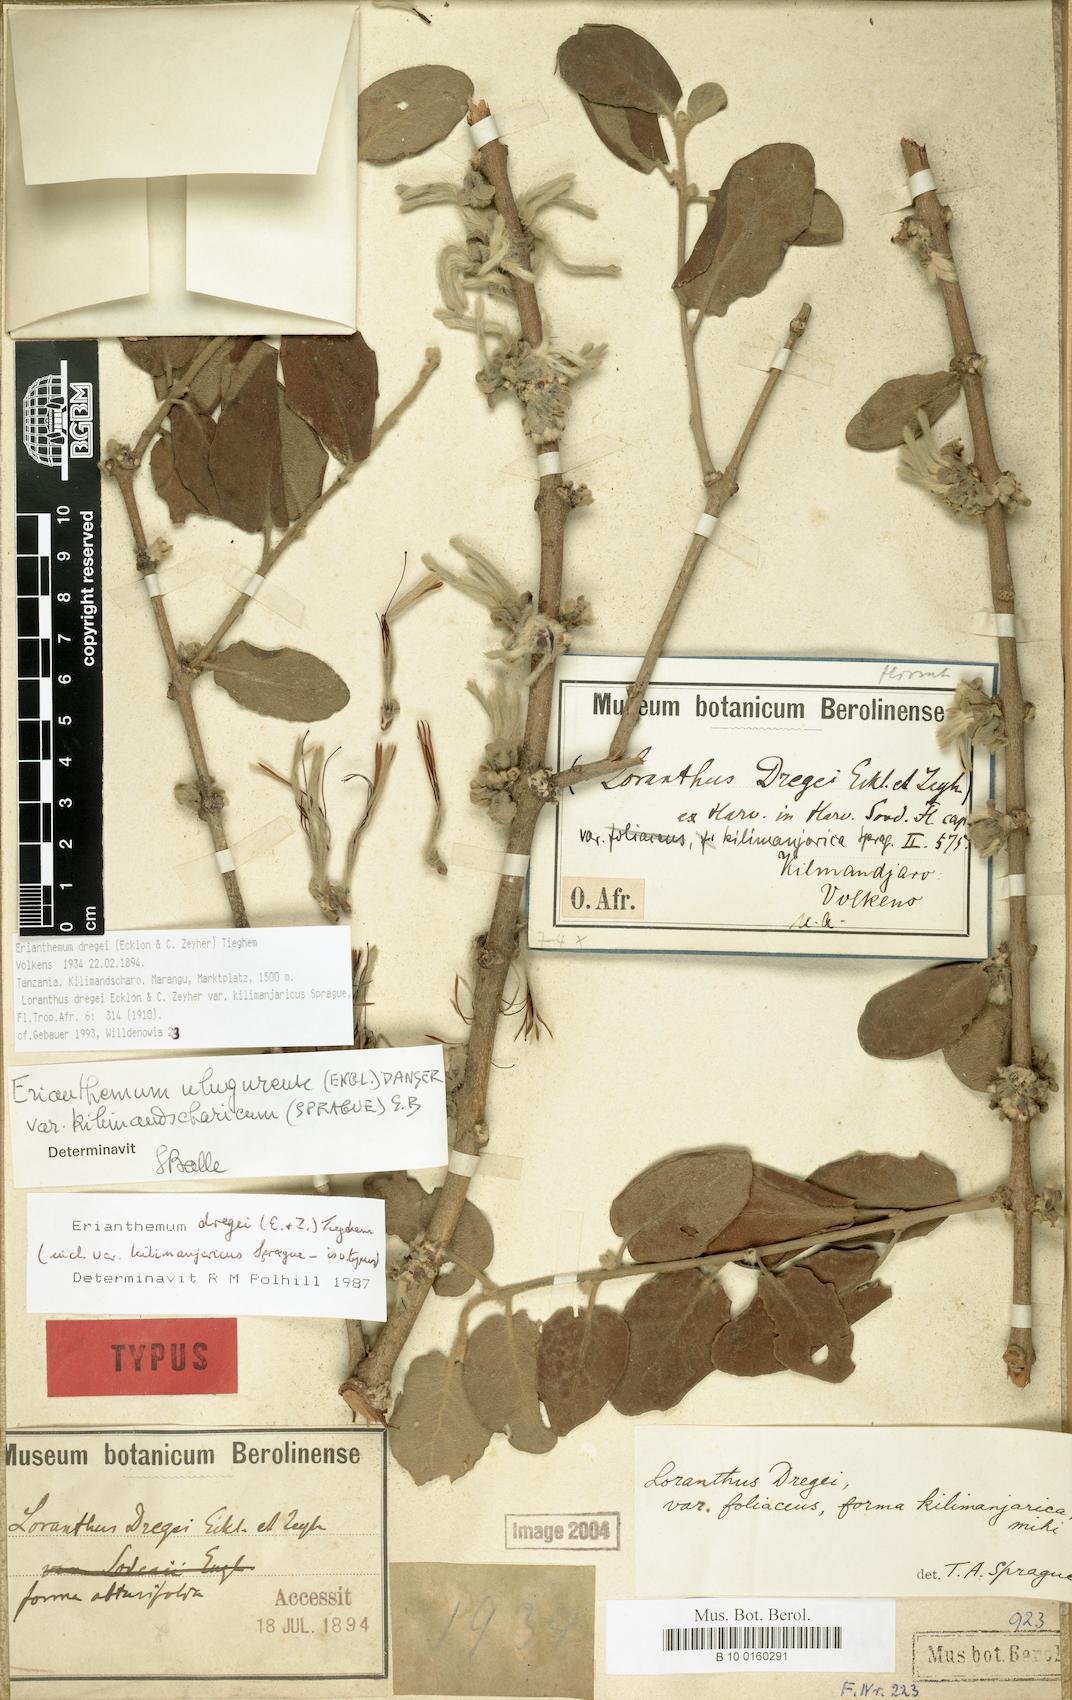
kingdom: Plantae
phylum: Tracheophyta
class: Magnoliopsida
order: Santalales
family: Loranthaceae
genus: Erianthemum
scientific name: Erianthemum dregei
